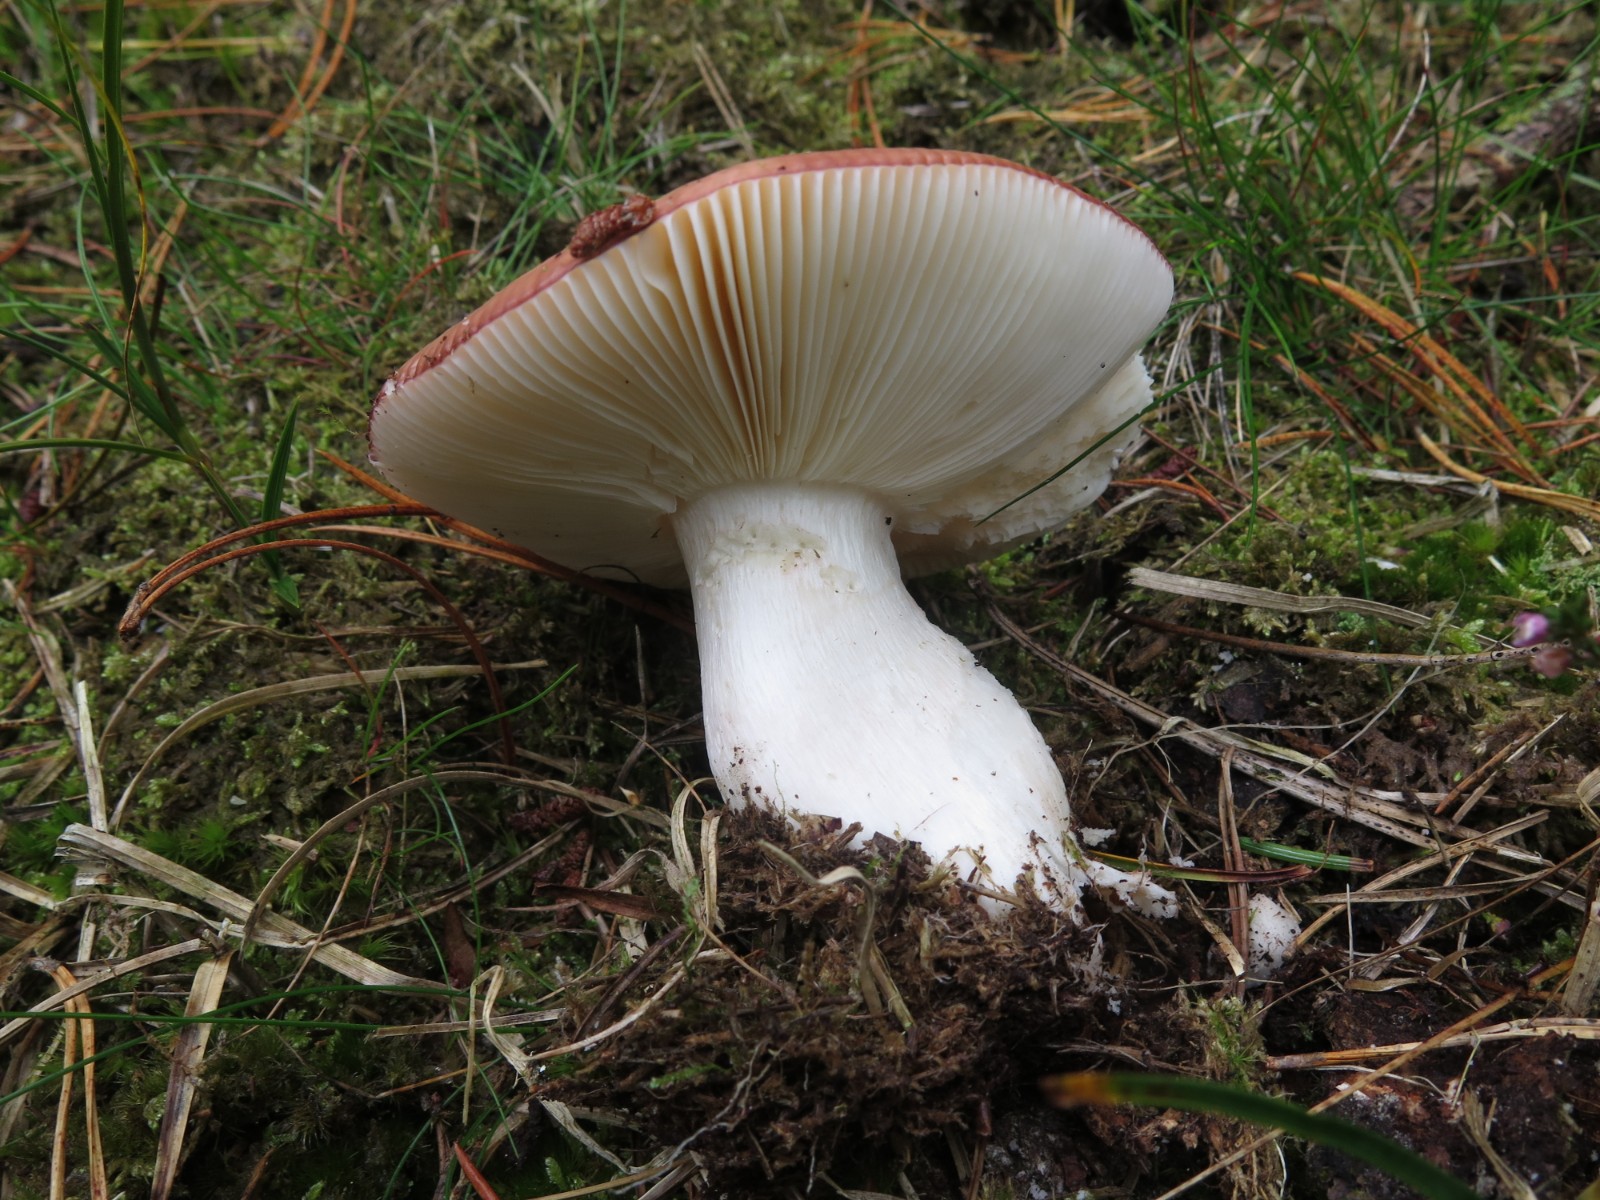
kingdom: Fungi
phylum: Basidiomycota
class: Agaricomycetes
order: Russulales
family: Russulaceae
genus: Russula
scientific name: Russula velenovskyi
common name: orangerød skørhat
